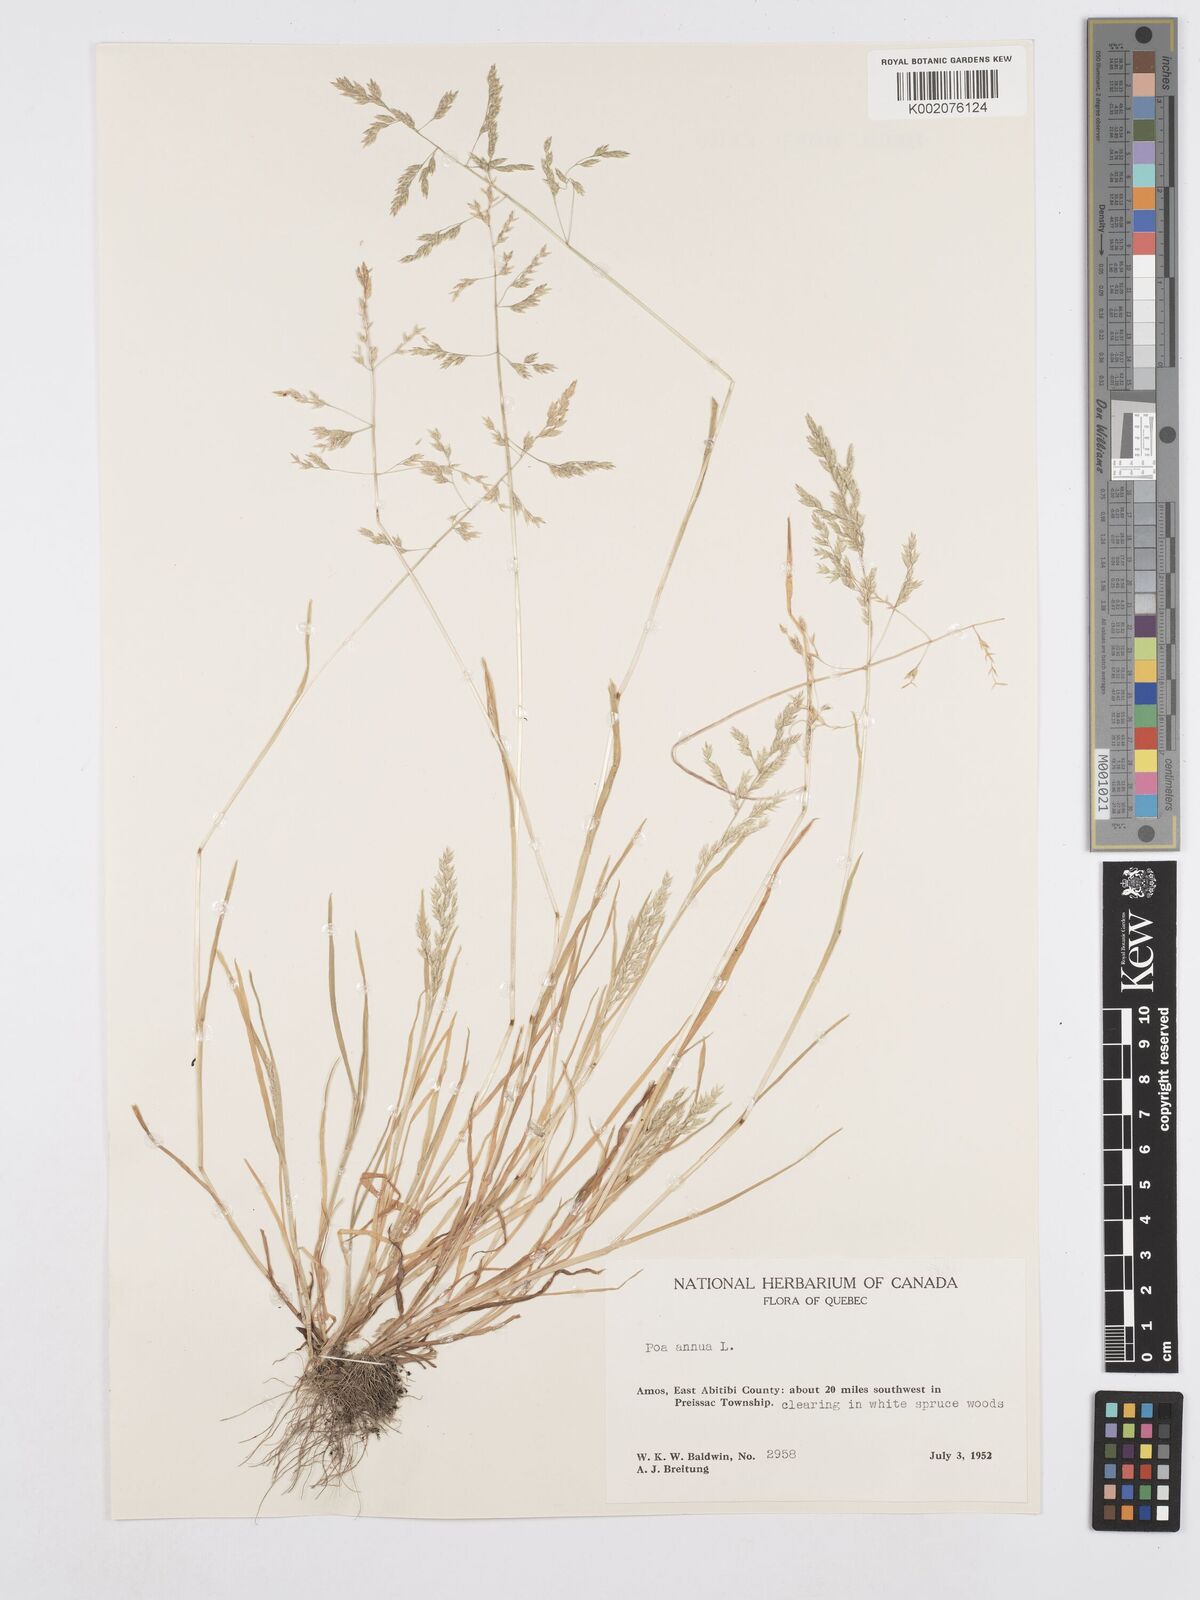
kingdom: Plantae
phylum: Tracheophyta
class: Liliopsida
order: Poales
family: Poaceae
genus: Poa
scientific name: Poa annua
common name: Annual bluegrass
